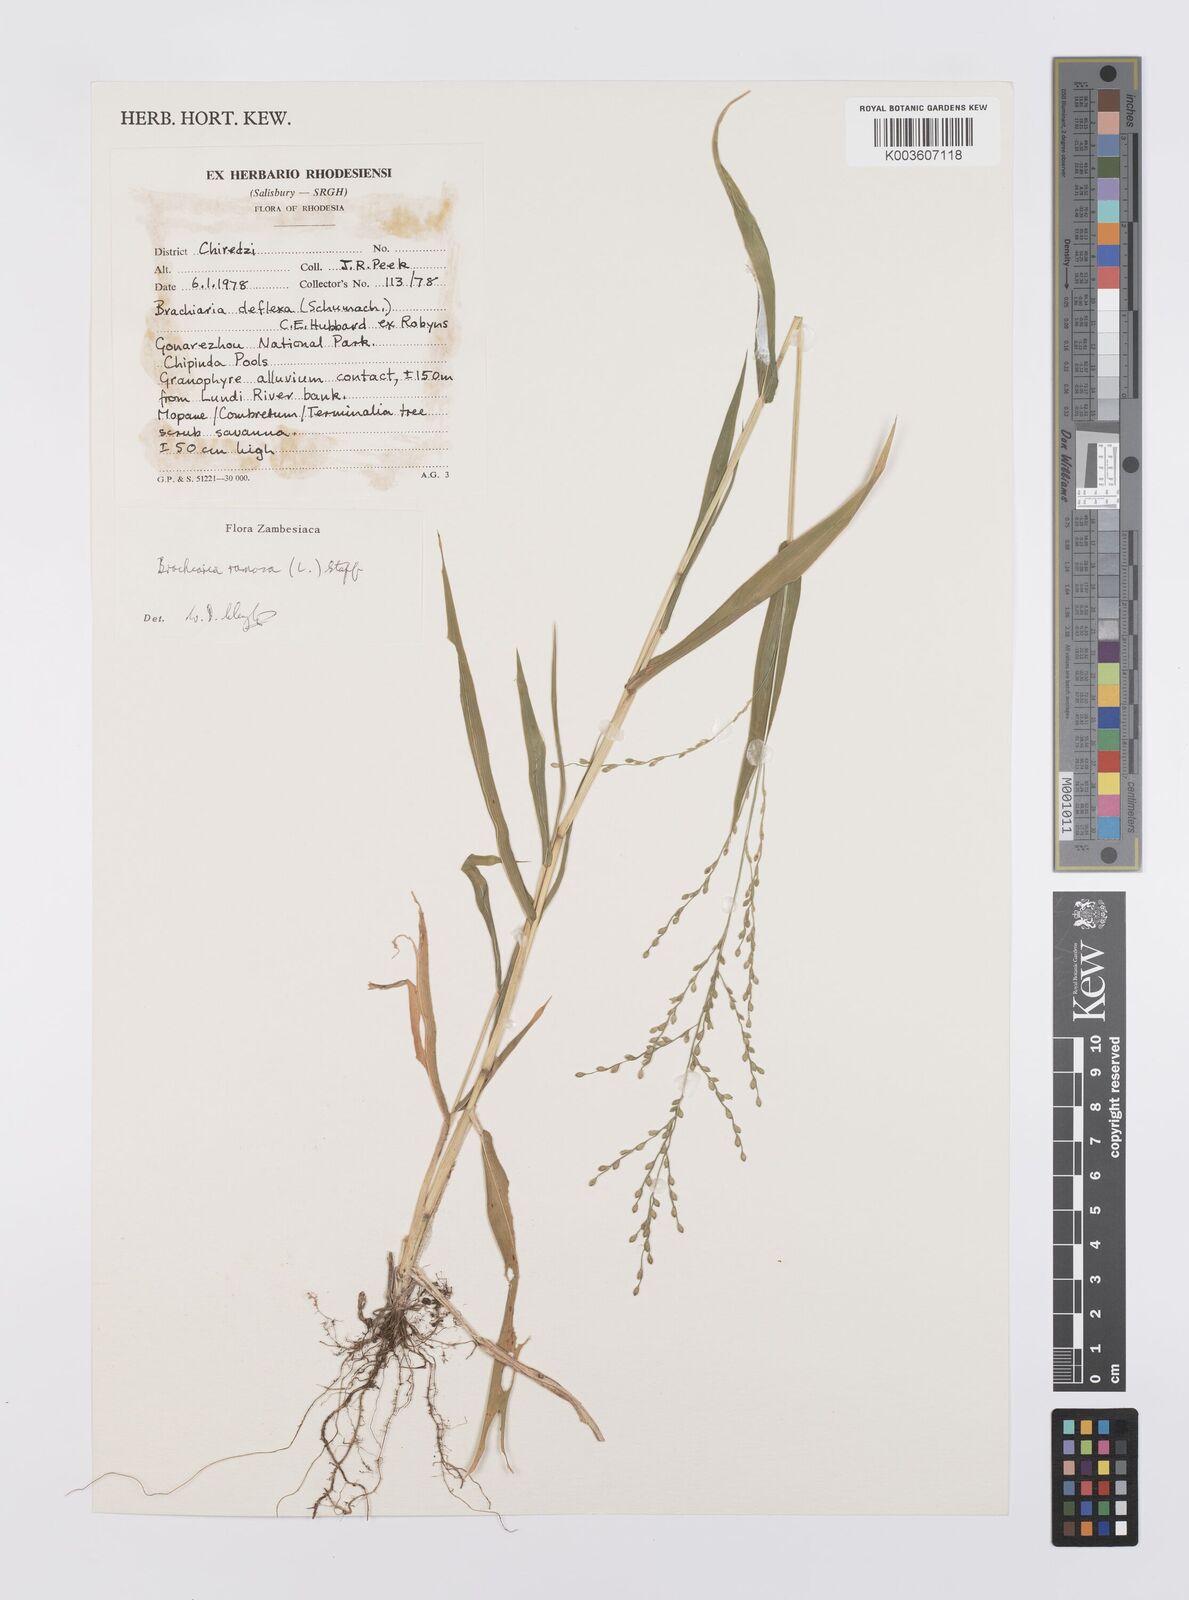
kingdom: Plantae
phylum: Tracheophyta
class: Liliopsida
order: Poales
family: Poaceae
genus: Urochloa
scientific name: Urochloa ramosa
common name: Browntop millet
